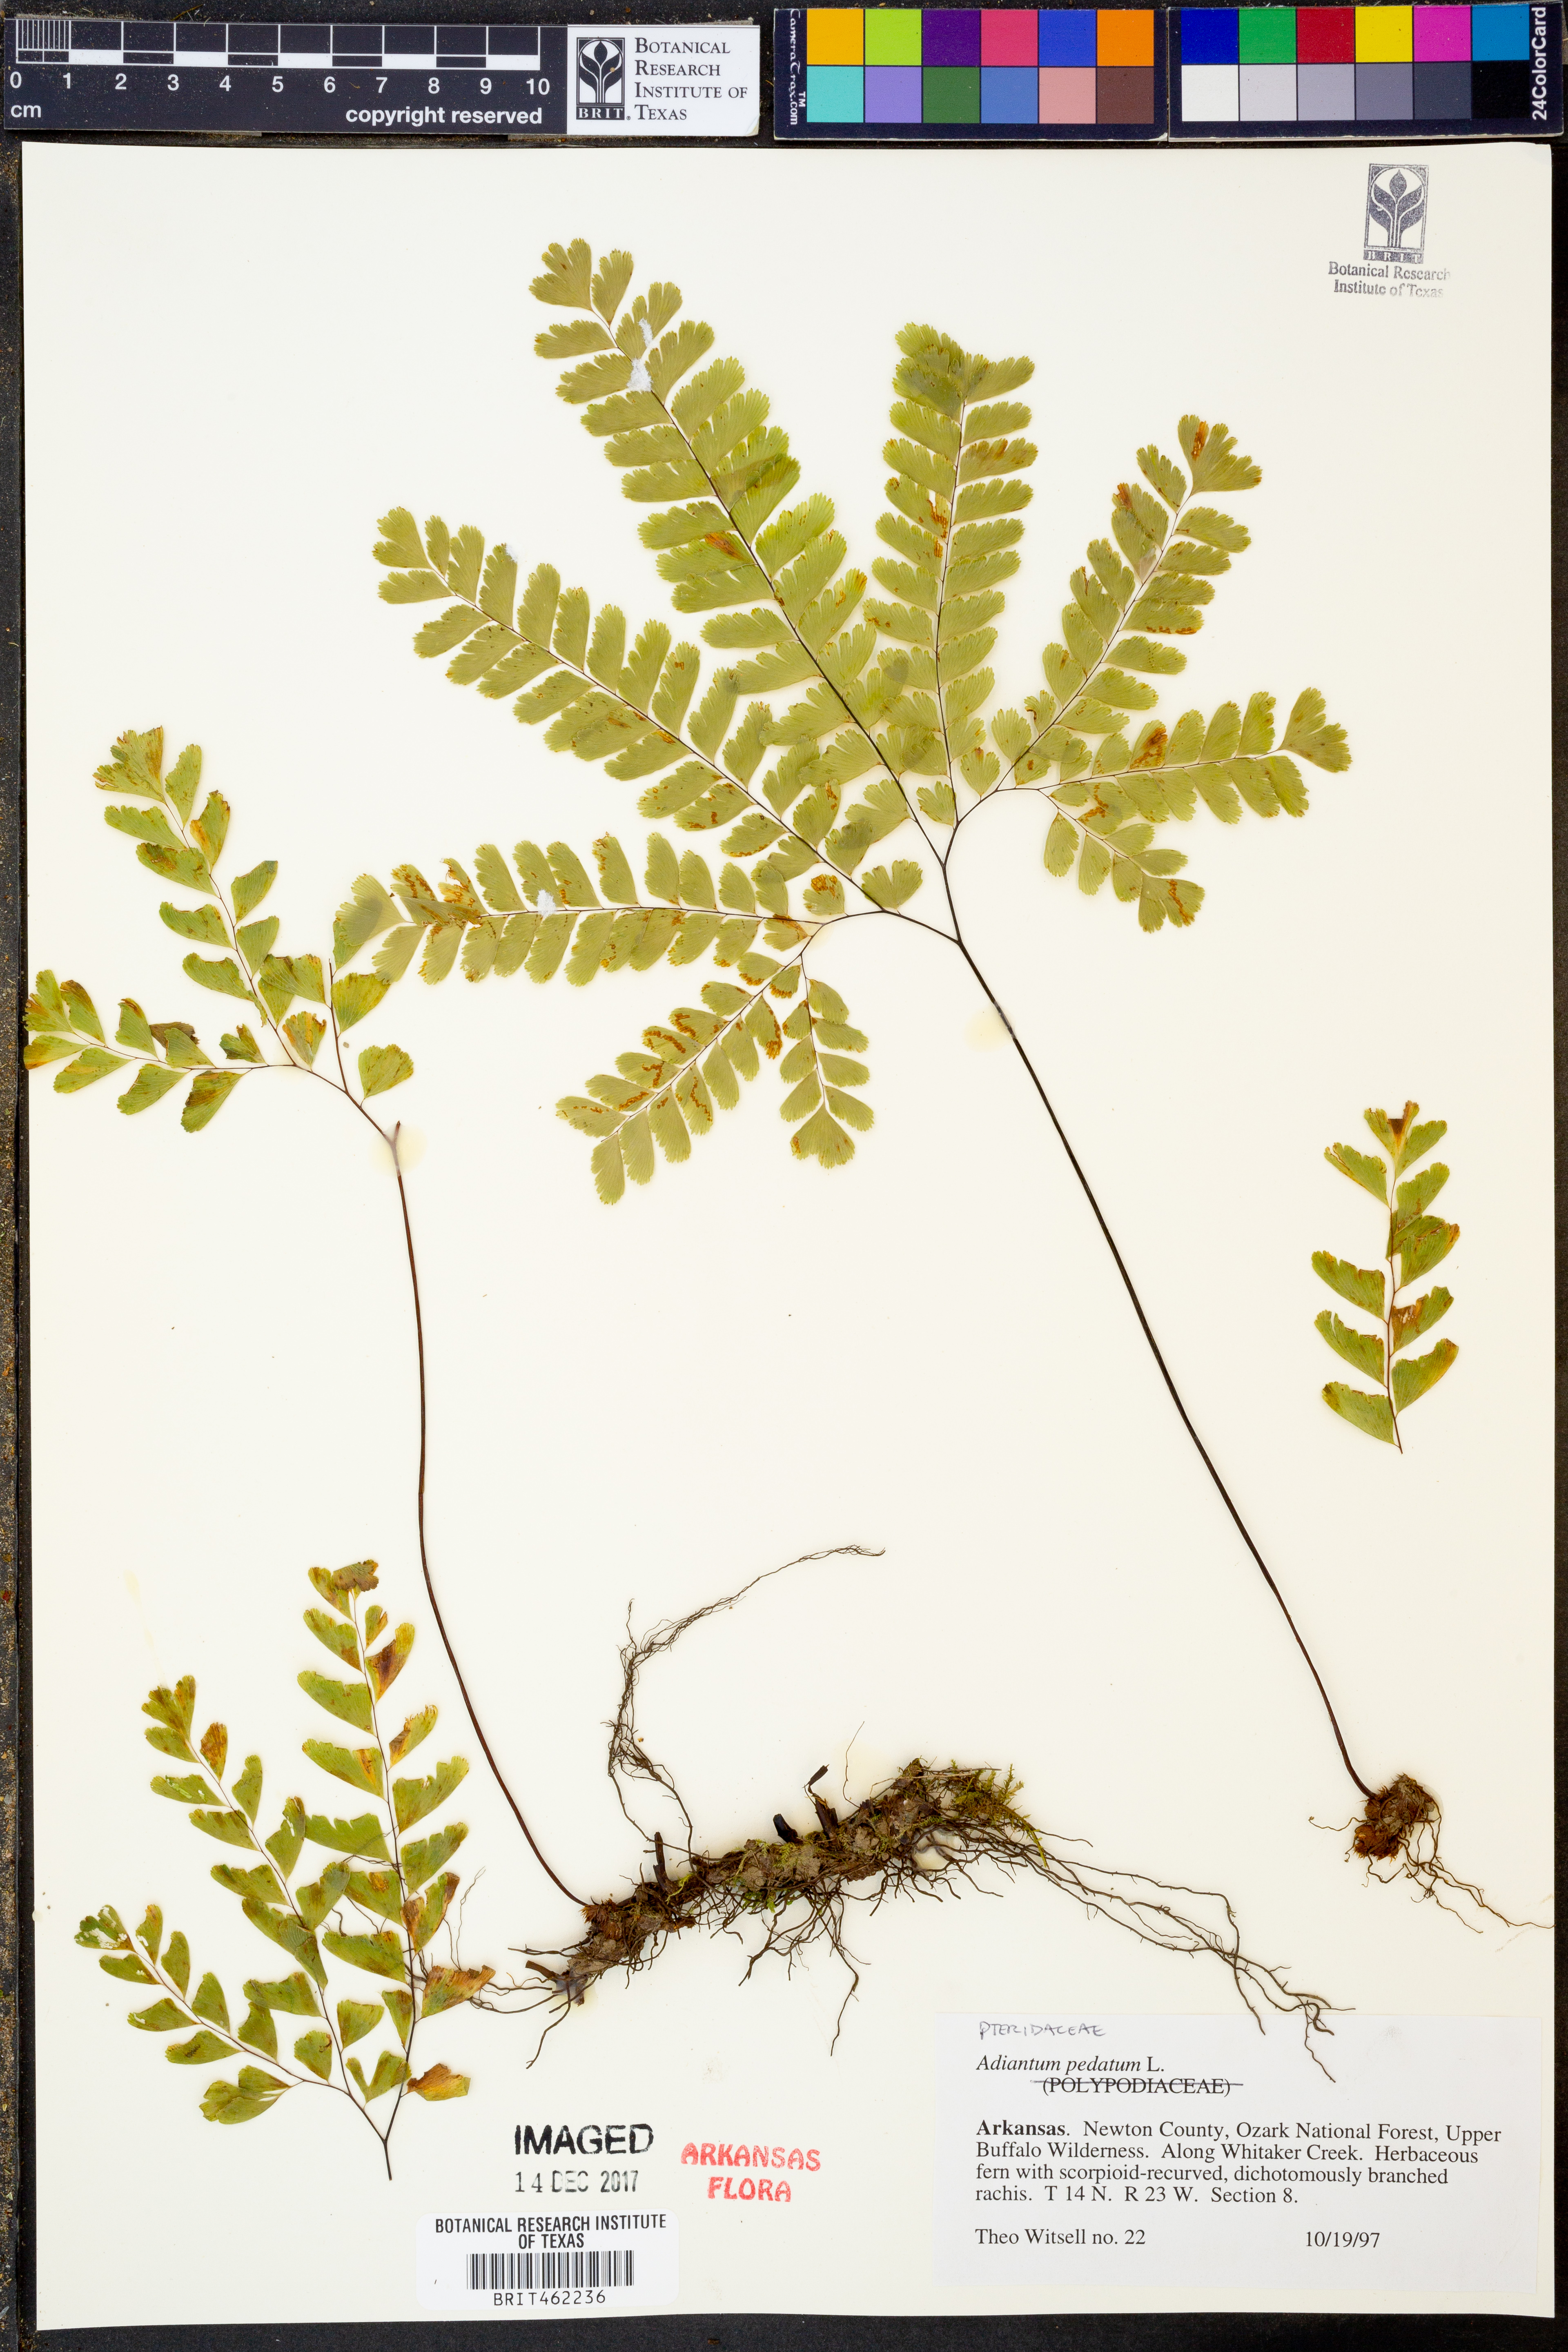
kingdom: Plantae
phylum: Tracheophyta
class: Polypodiopsida
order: Polypodiales
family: Pteridaceae
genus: Adiantum
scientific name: Adiantum pedatum
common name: Five-finger fern
